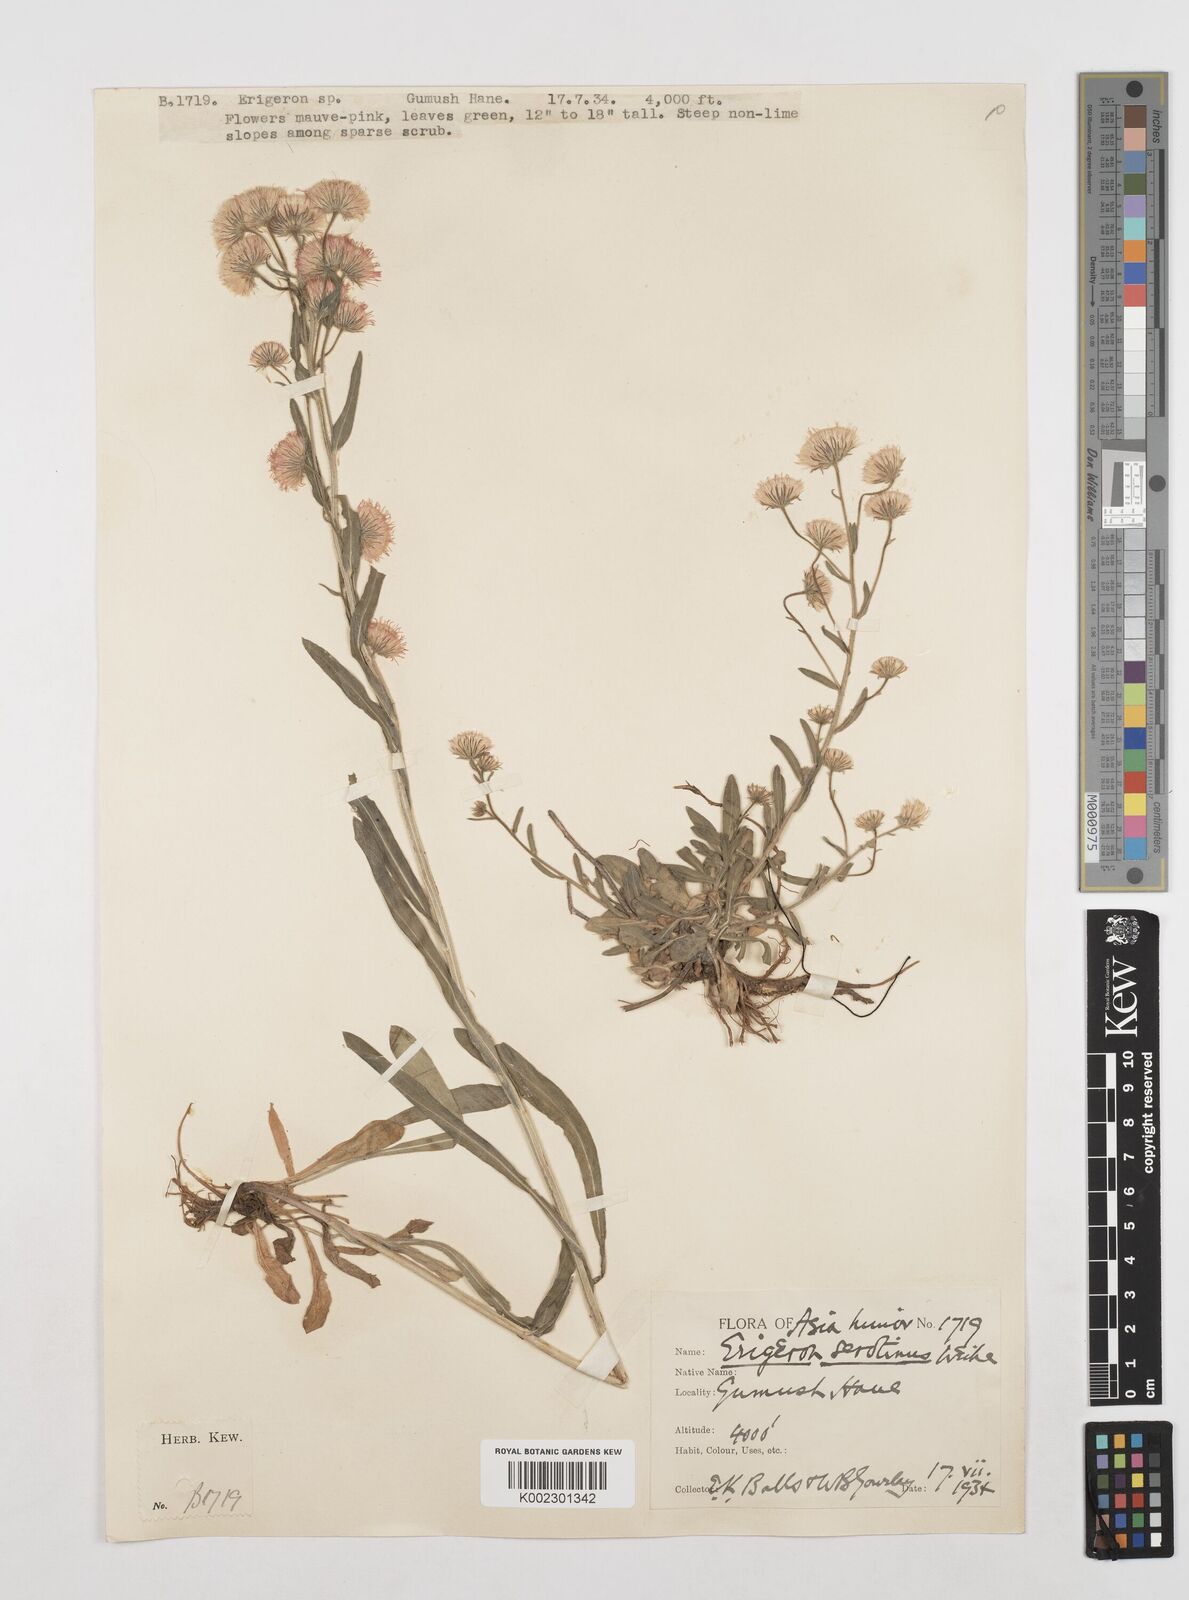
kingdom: Plantae
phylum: Tracheophyta
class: Magnoliopsida
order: Asterales
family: Asteraceae
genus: Erigeron
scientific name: Erigeron muralis
